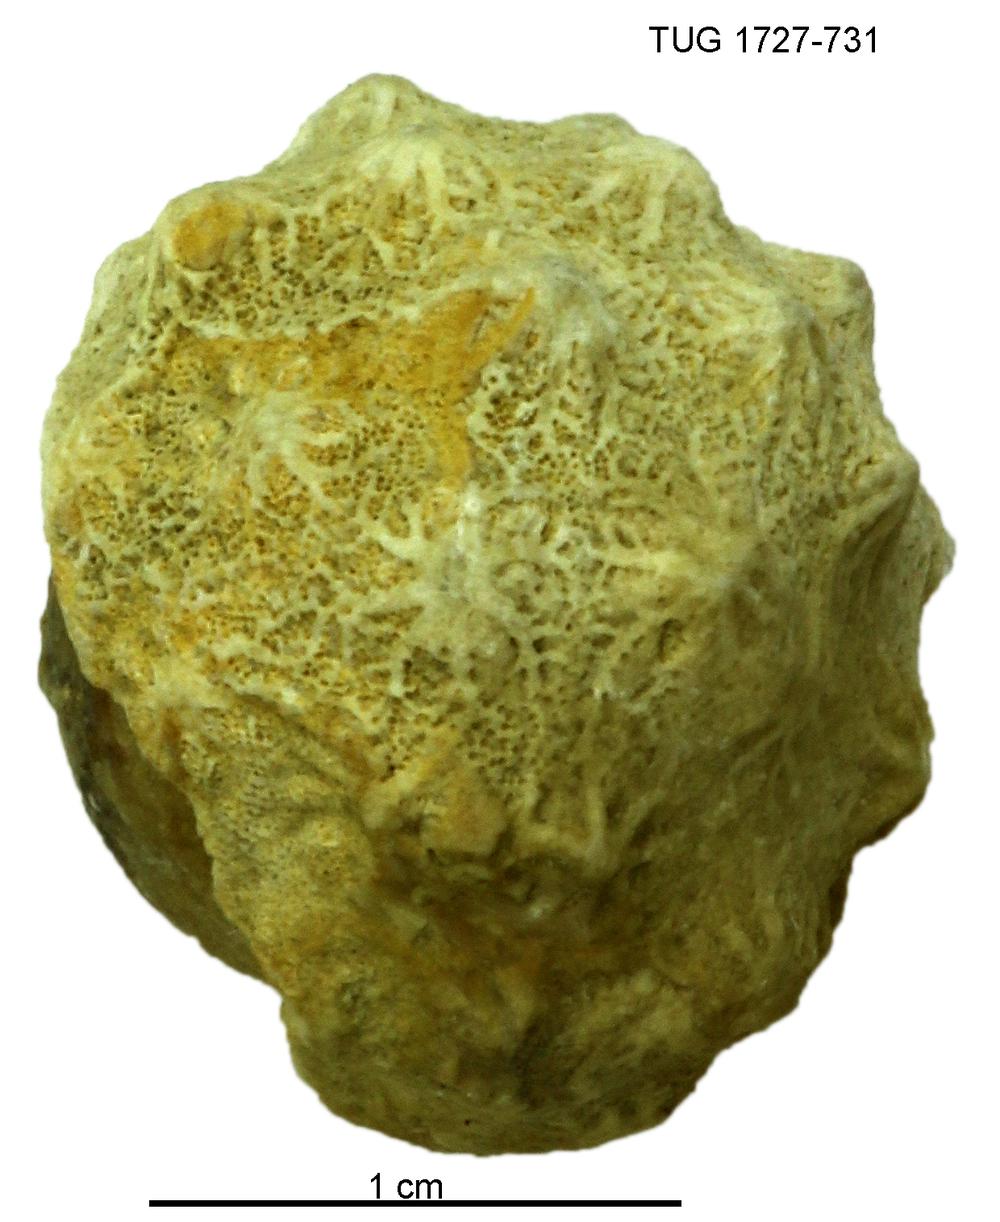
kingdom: Animalia
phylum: Bryozoa
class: Stenolaemata
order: Cystoporida
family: Constellariidae
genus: Revalopora
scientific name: Revalopora revalensis
